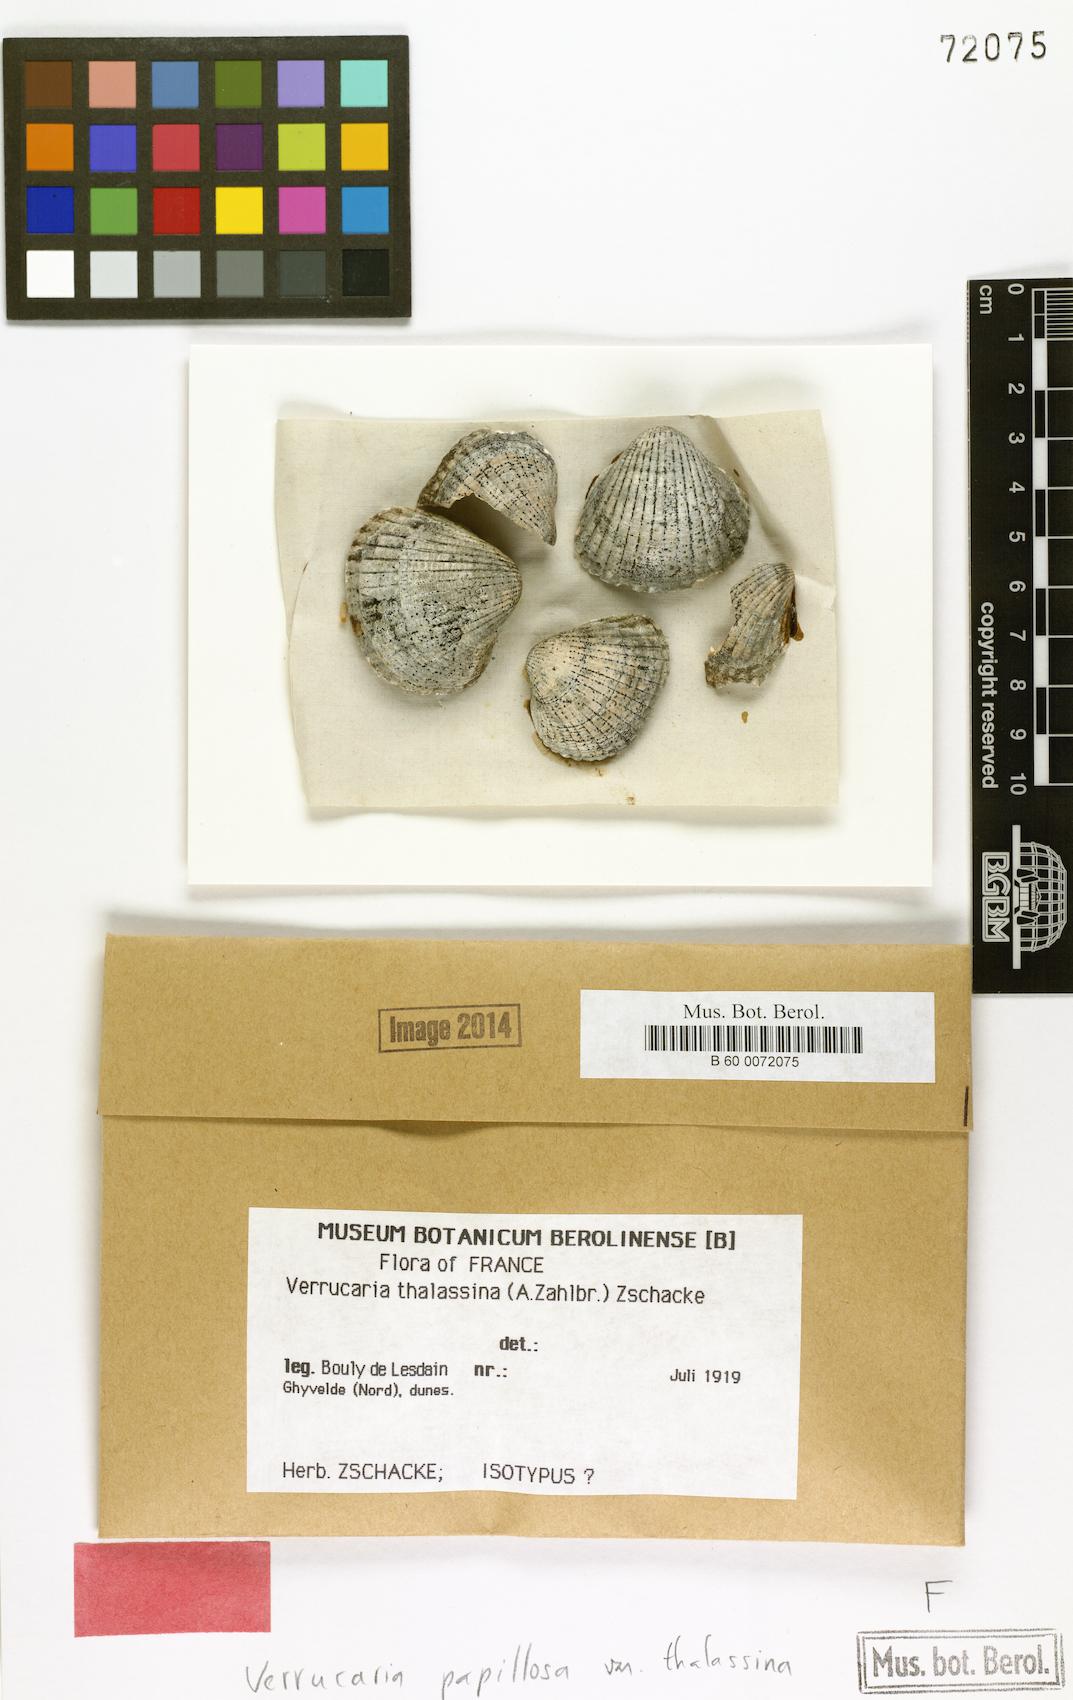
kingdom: Fungi
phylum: Ascomycota
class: Eurotiomycetes
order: Verrucariales
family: Verrucariaceae
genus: Verrucaria
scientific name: Verrucaria thalassina
